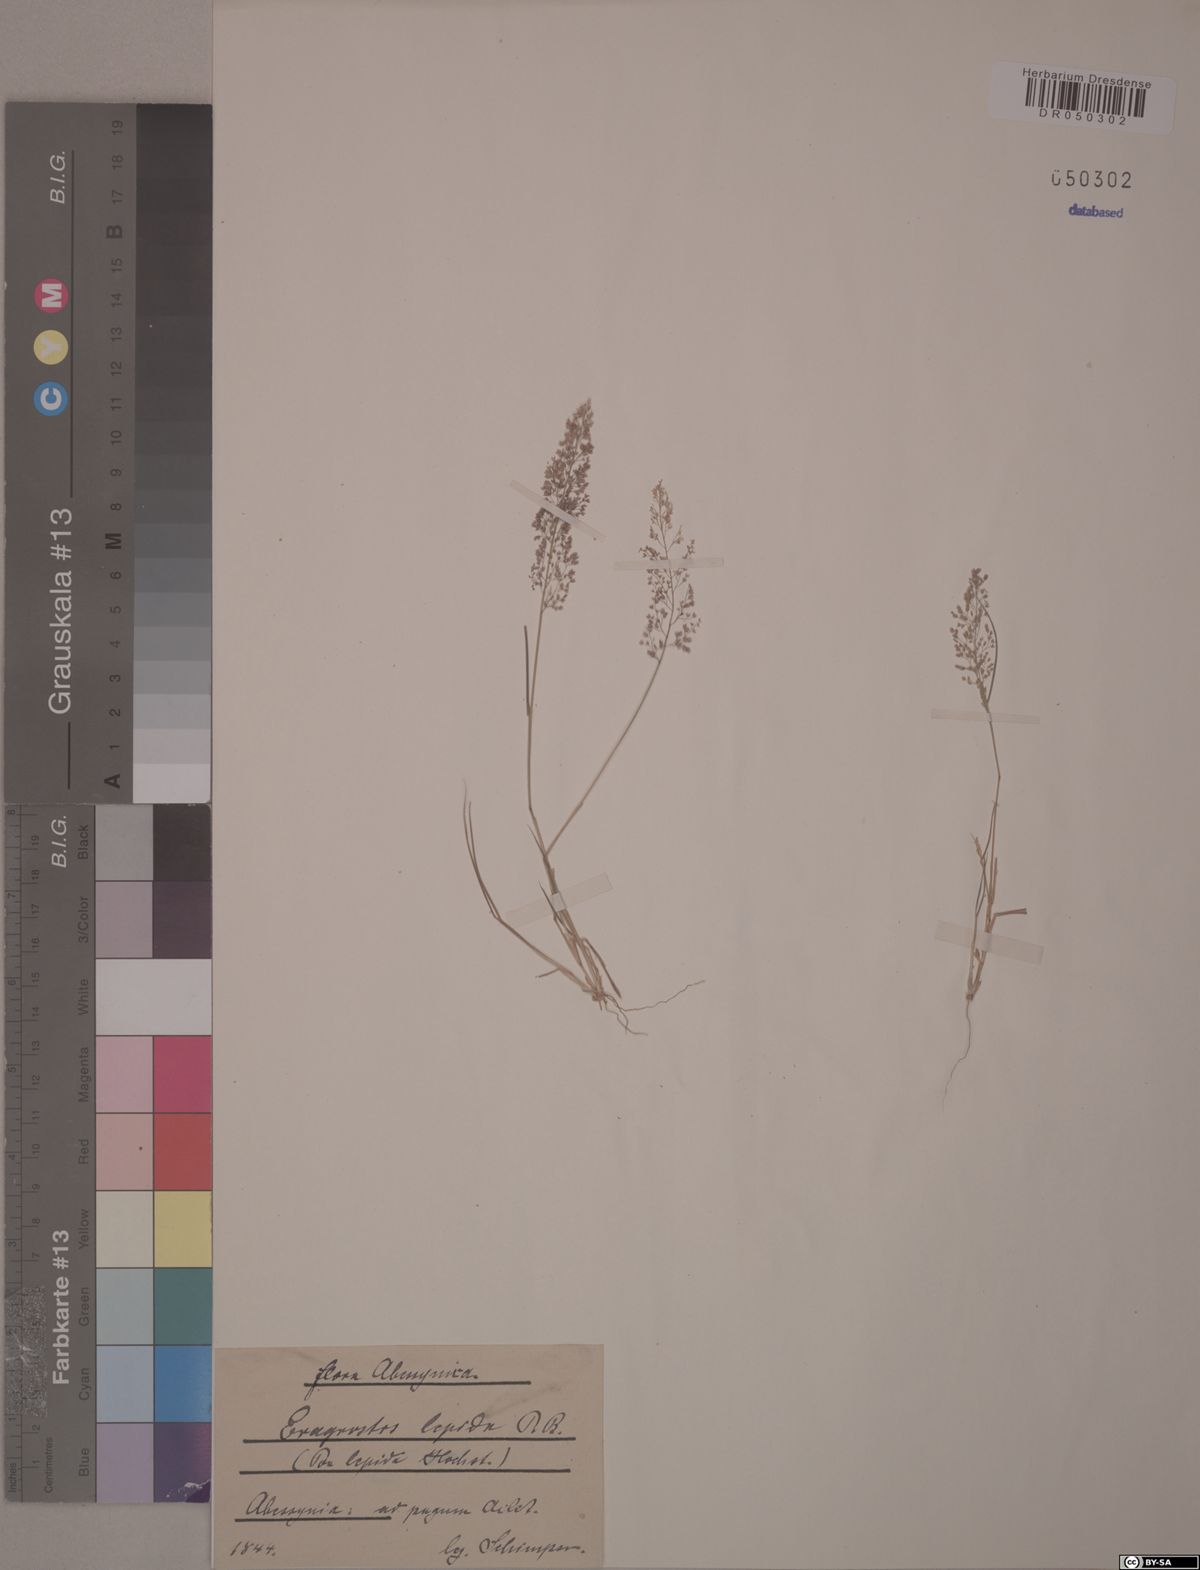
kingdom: Plantae
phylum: Tracheophyta
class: Liliopsida
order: Poales
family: Poaceae
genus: Eragrostis
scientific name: Eragrostis lepida
